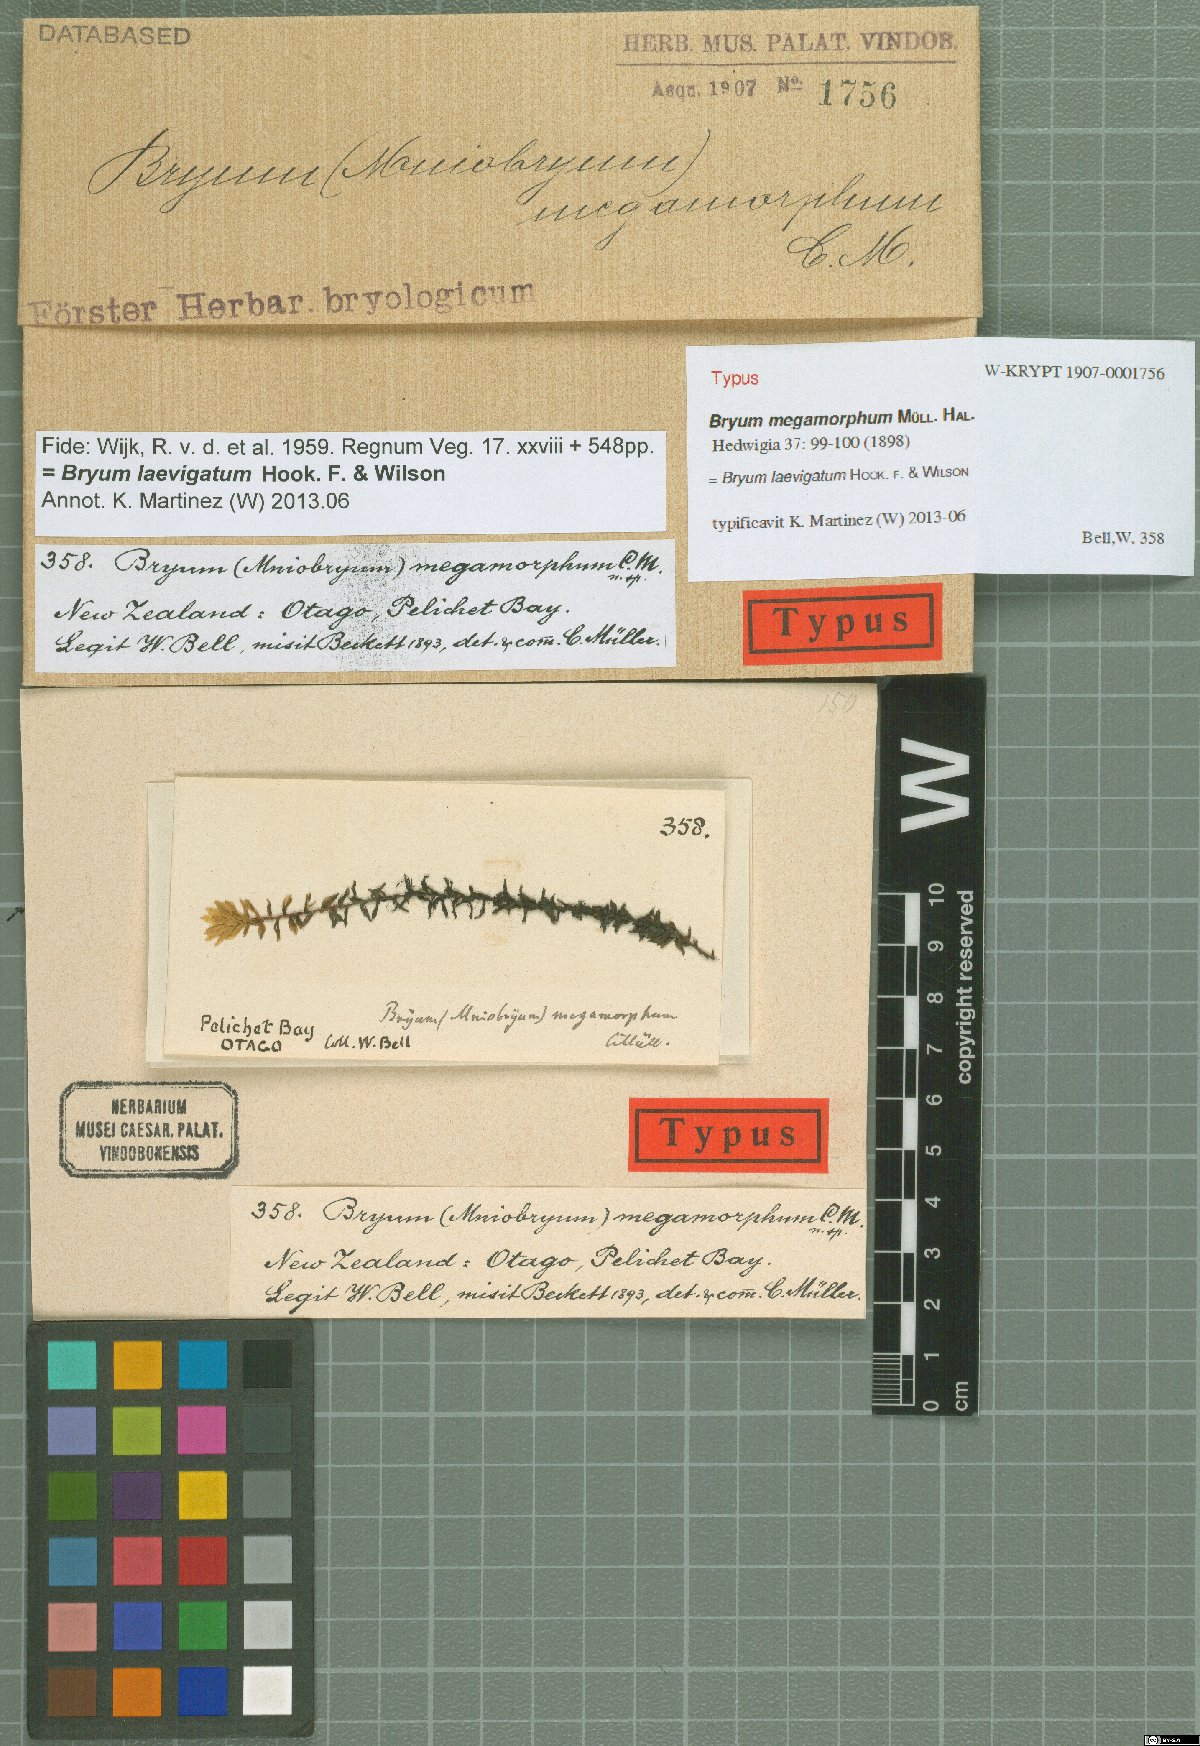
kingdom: Plantae
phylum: Bryophyta
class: Bryopsida
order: Bryales
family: Bryaceae
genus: Imbribryum
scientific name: Imbribryum laevigatum
